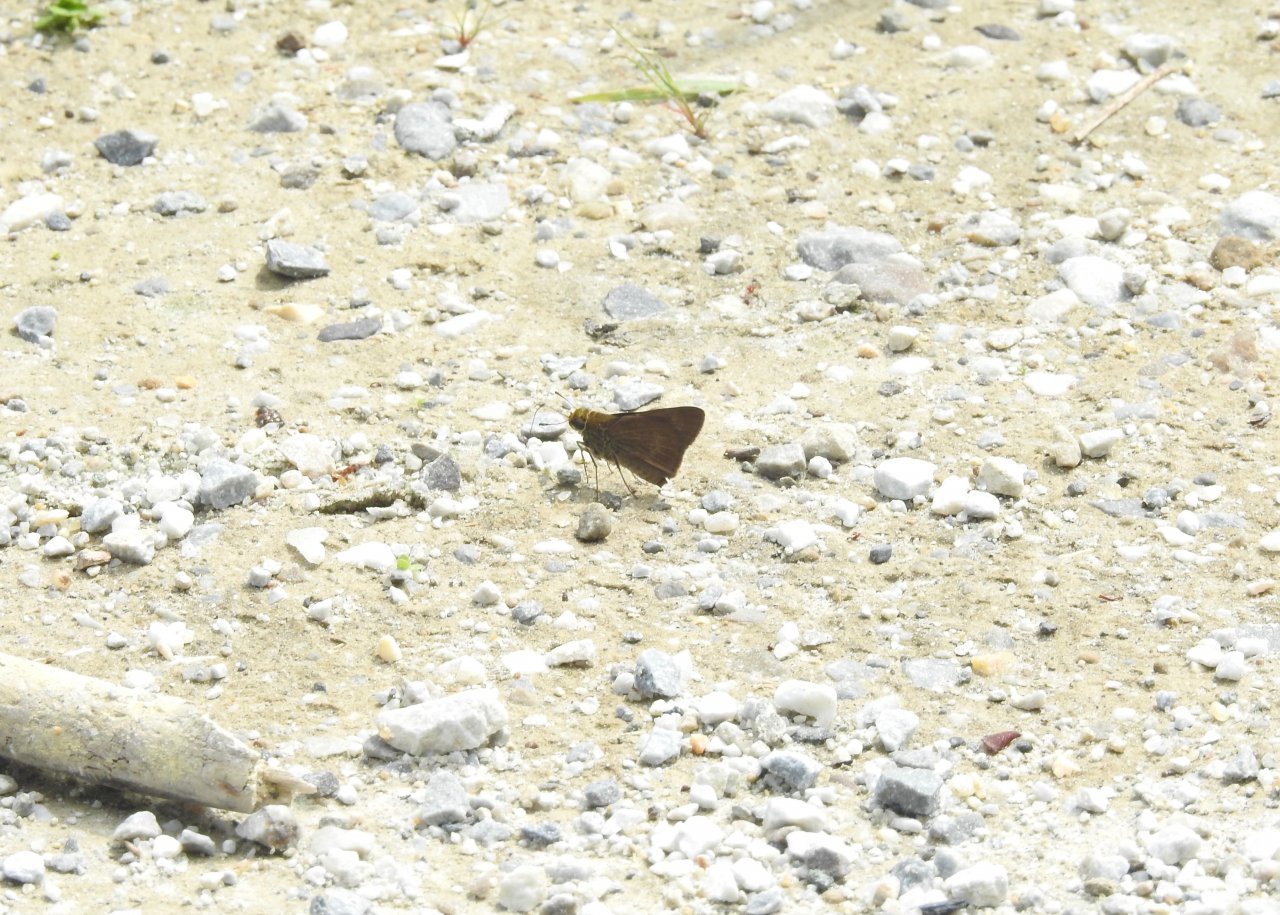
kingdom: Animalia
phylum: Arthropoda
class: Insecta
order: Lepidoptera
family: Hesperiidae
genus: Euphyes
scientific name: Euphyes vestris
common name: Dun Skipper
